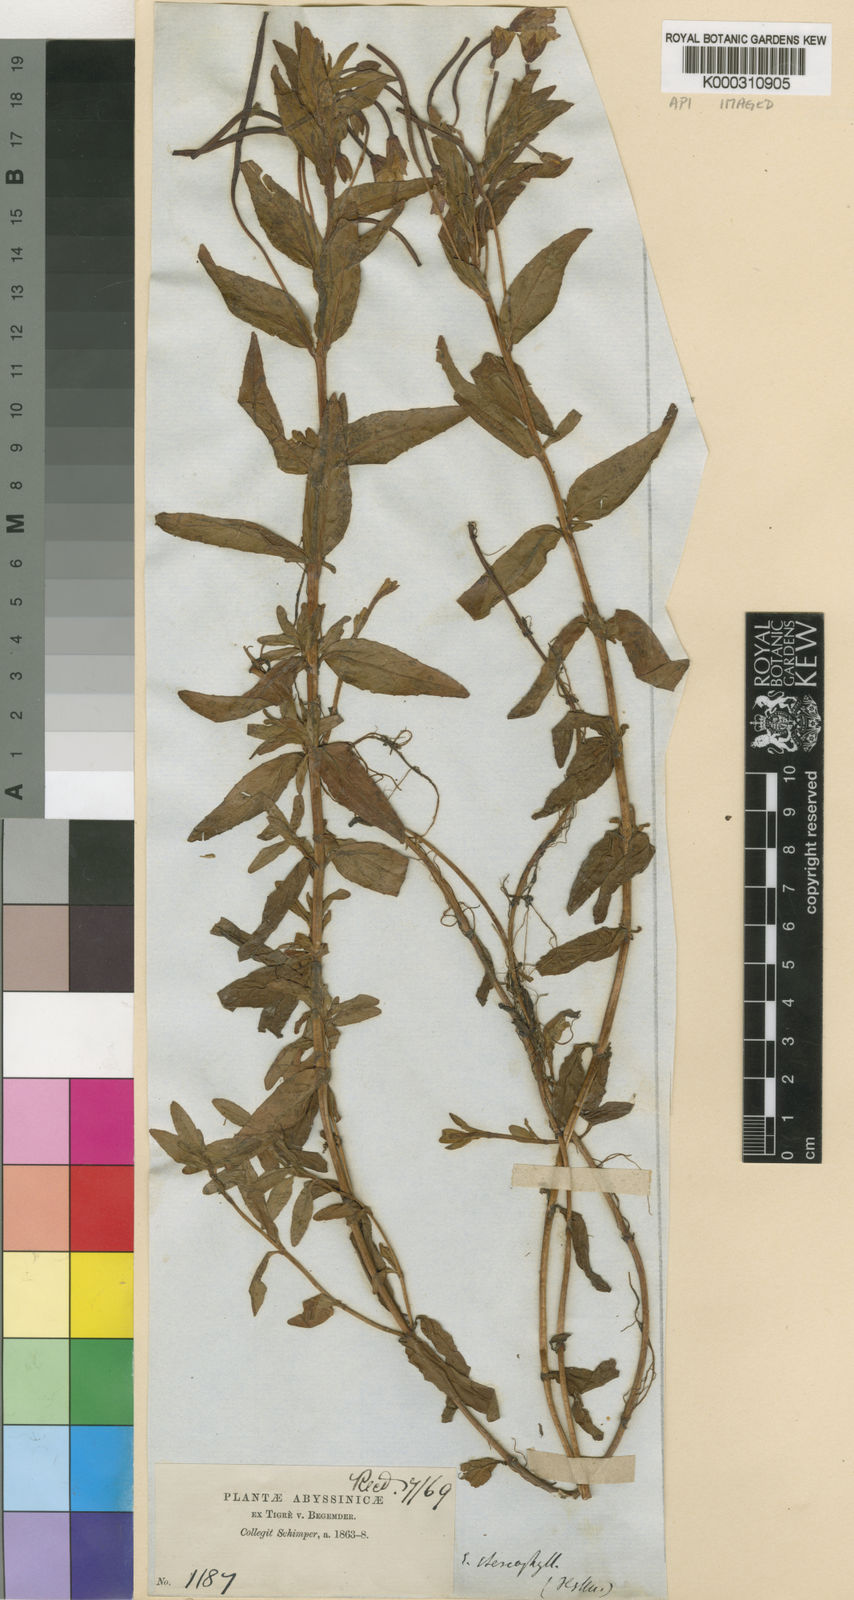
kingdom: Plantae
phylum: Tracheophyta
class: Magnoliopsida
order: Myrtales
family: Onagraceae
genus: Epilobium
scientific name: Epilobium stereophyllum
